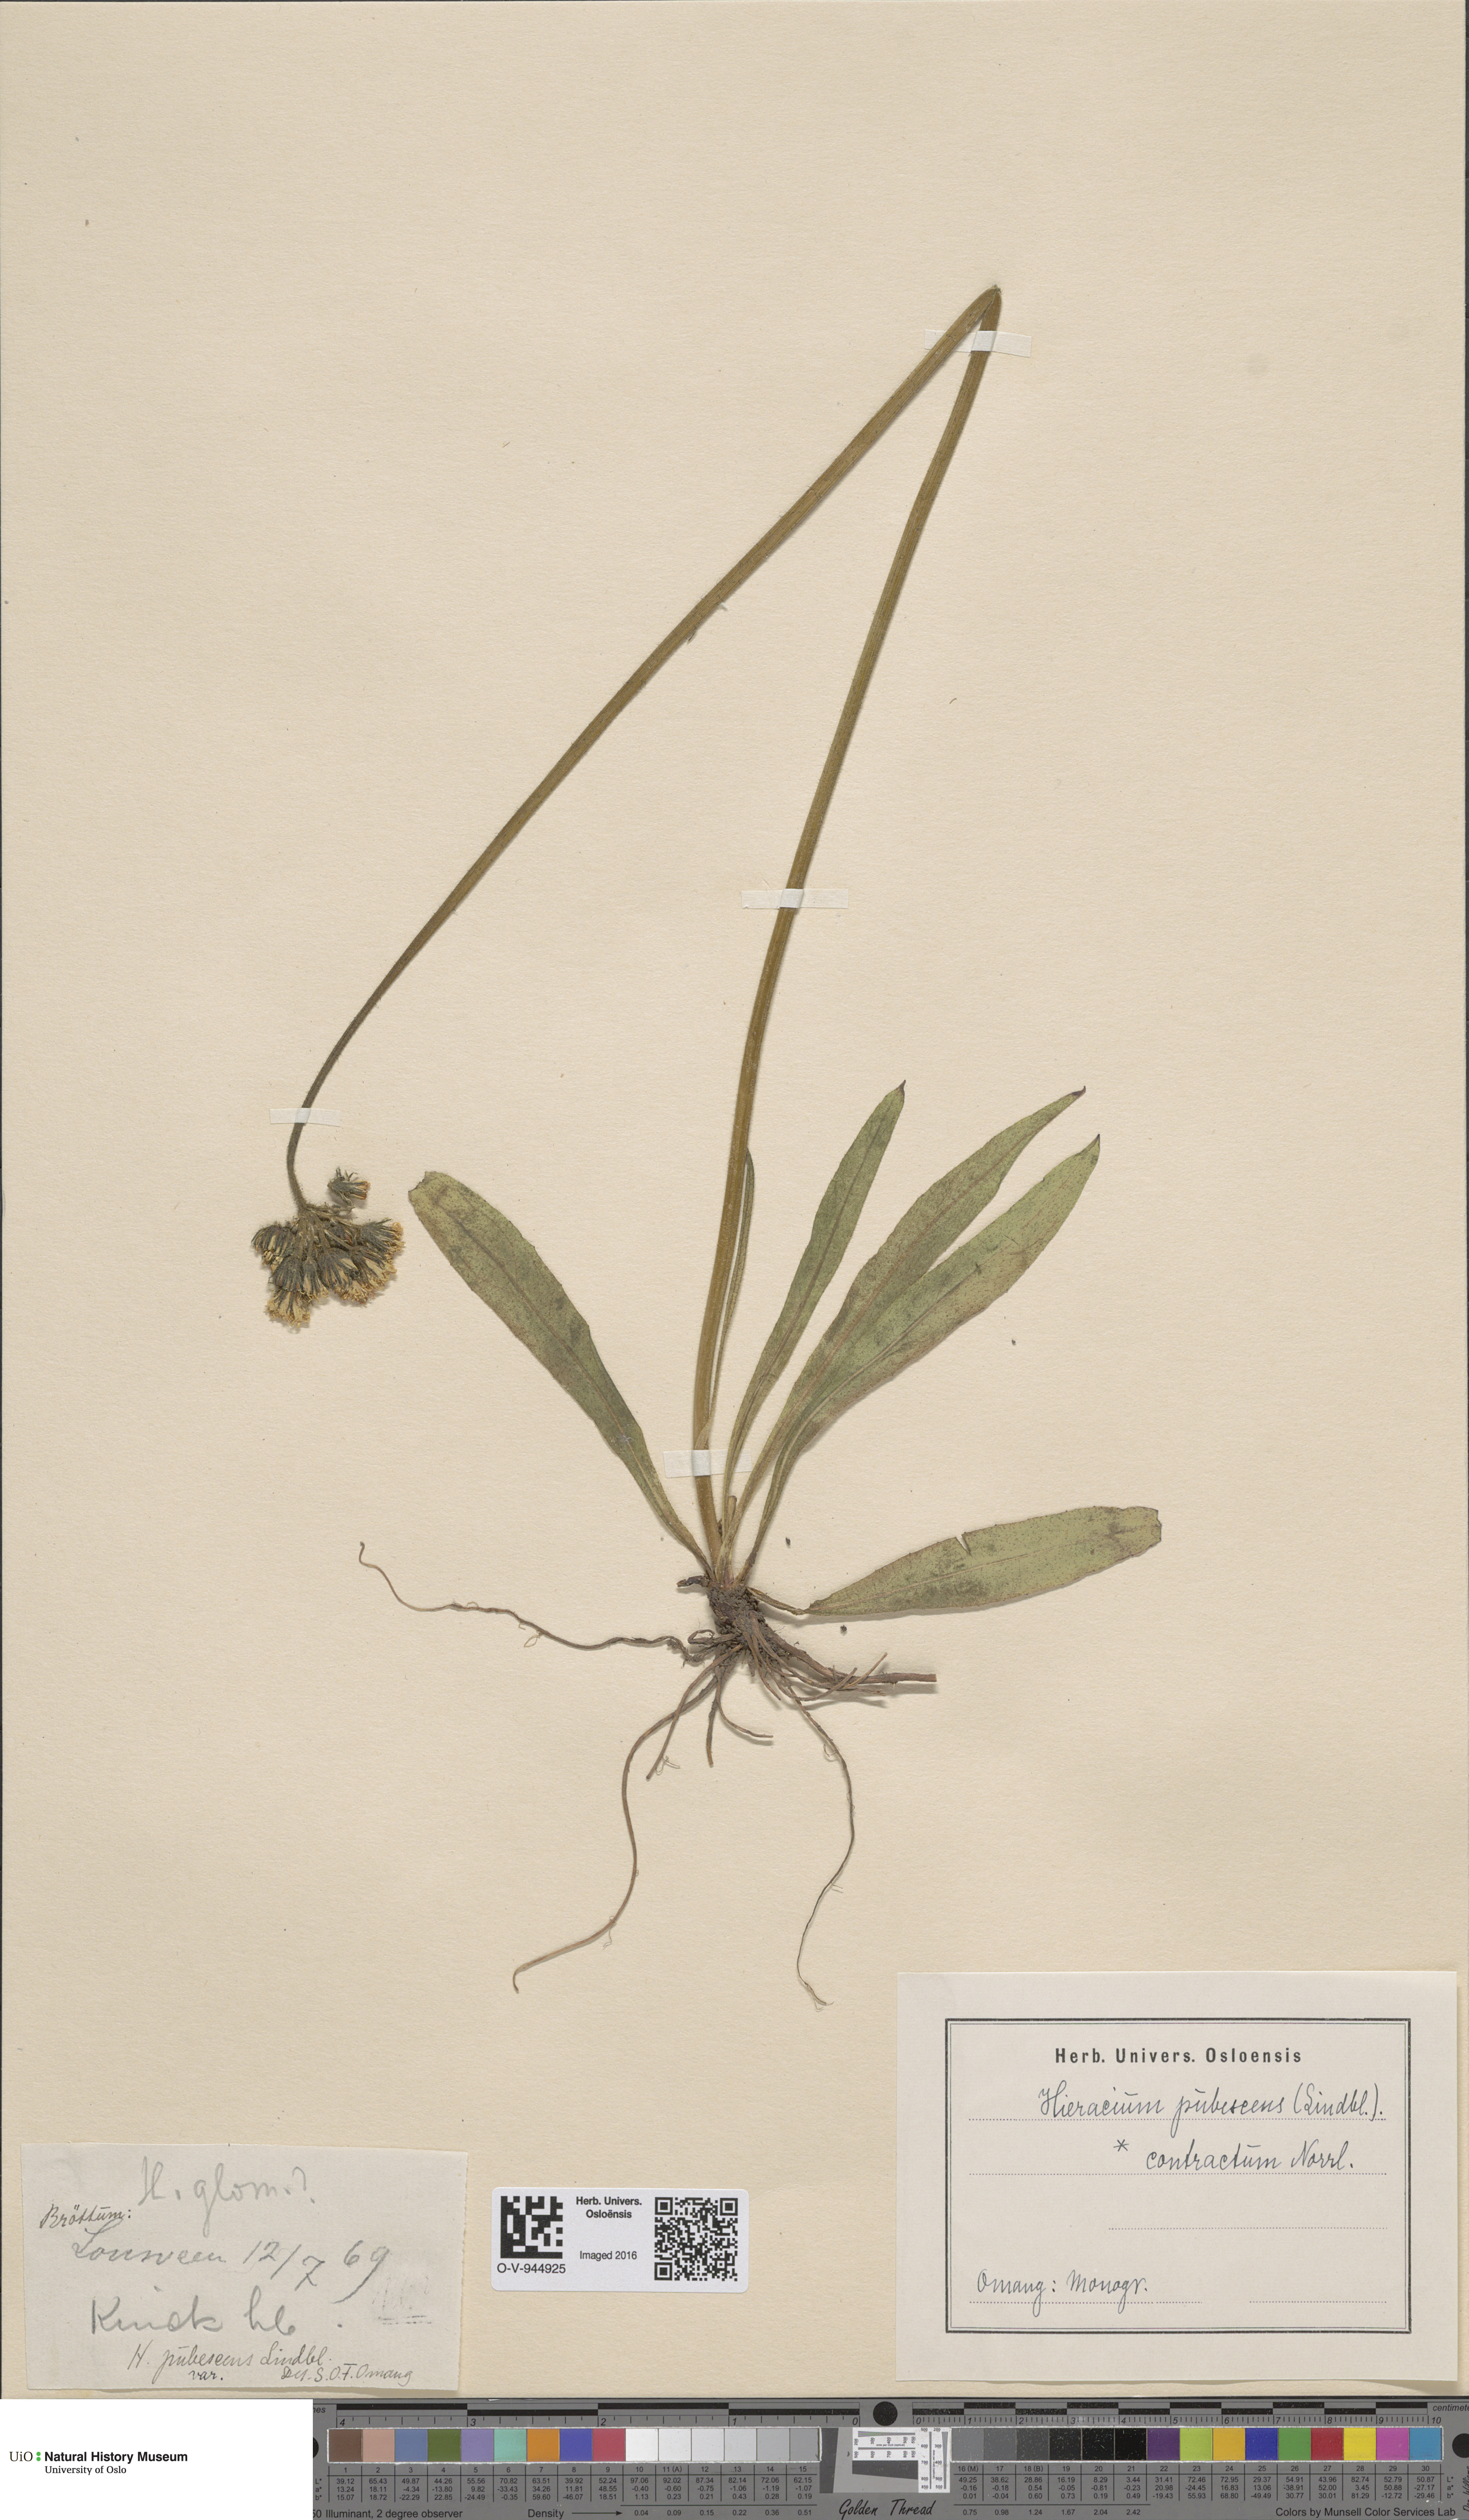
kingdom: Plantae
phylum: Tracheophyta
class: Magnoliopsida
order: Asterales
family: Asteraceae
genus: Pilosella
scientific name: Pilosella cymosa
